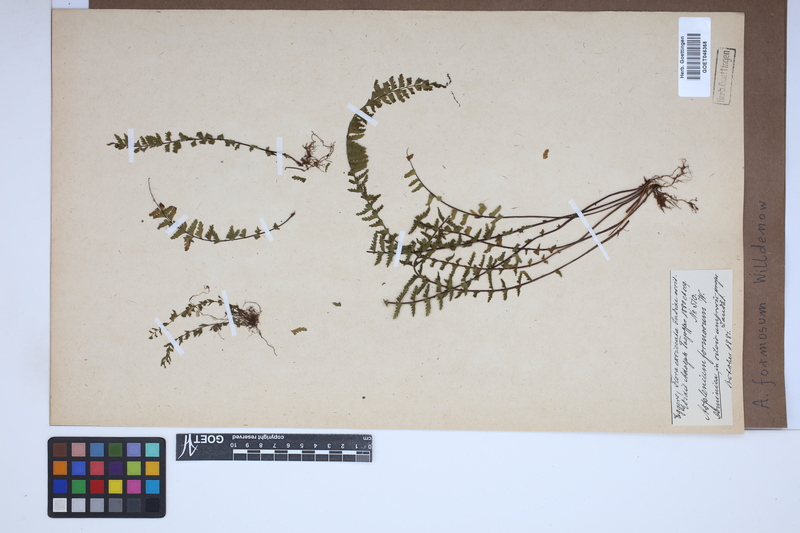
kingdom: Plantae
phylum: Tracheophyta
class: Polypodiopsida
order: Polypodiales
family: Aspleniaceae
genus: Asplenium
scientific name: Asplenium formosum
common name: Showy spleenwort
